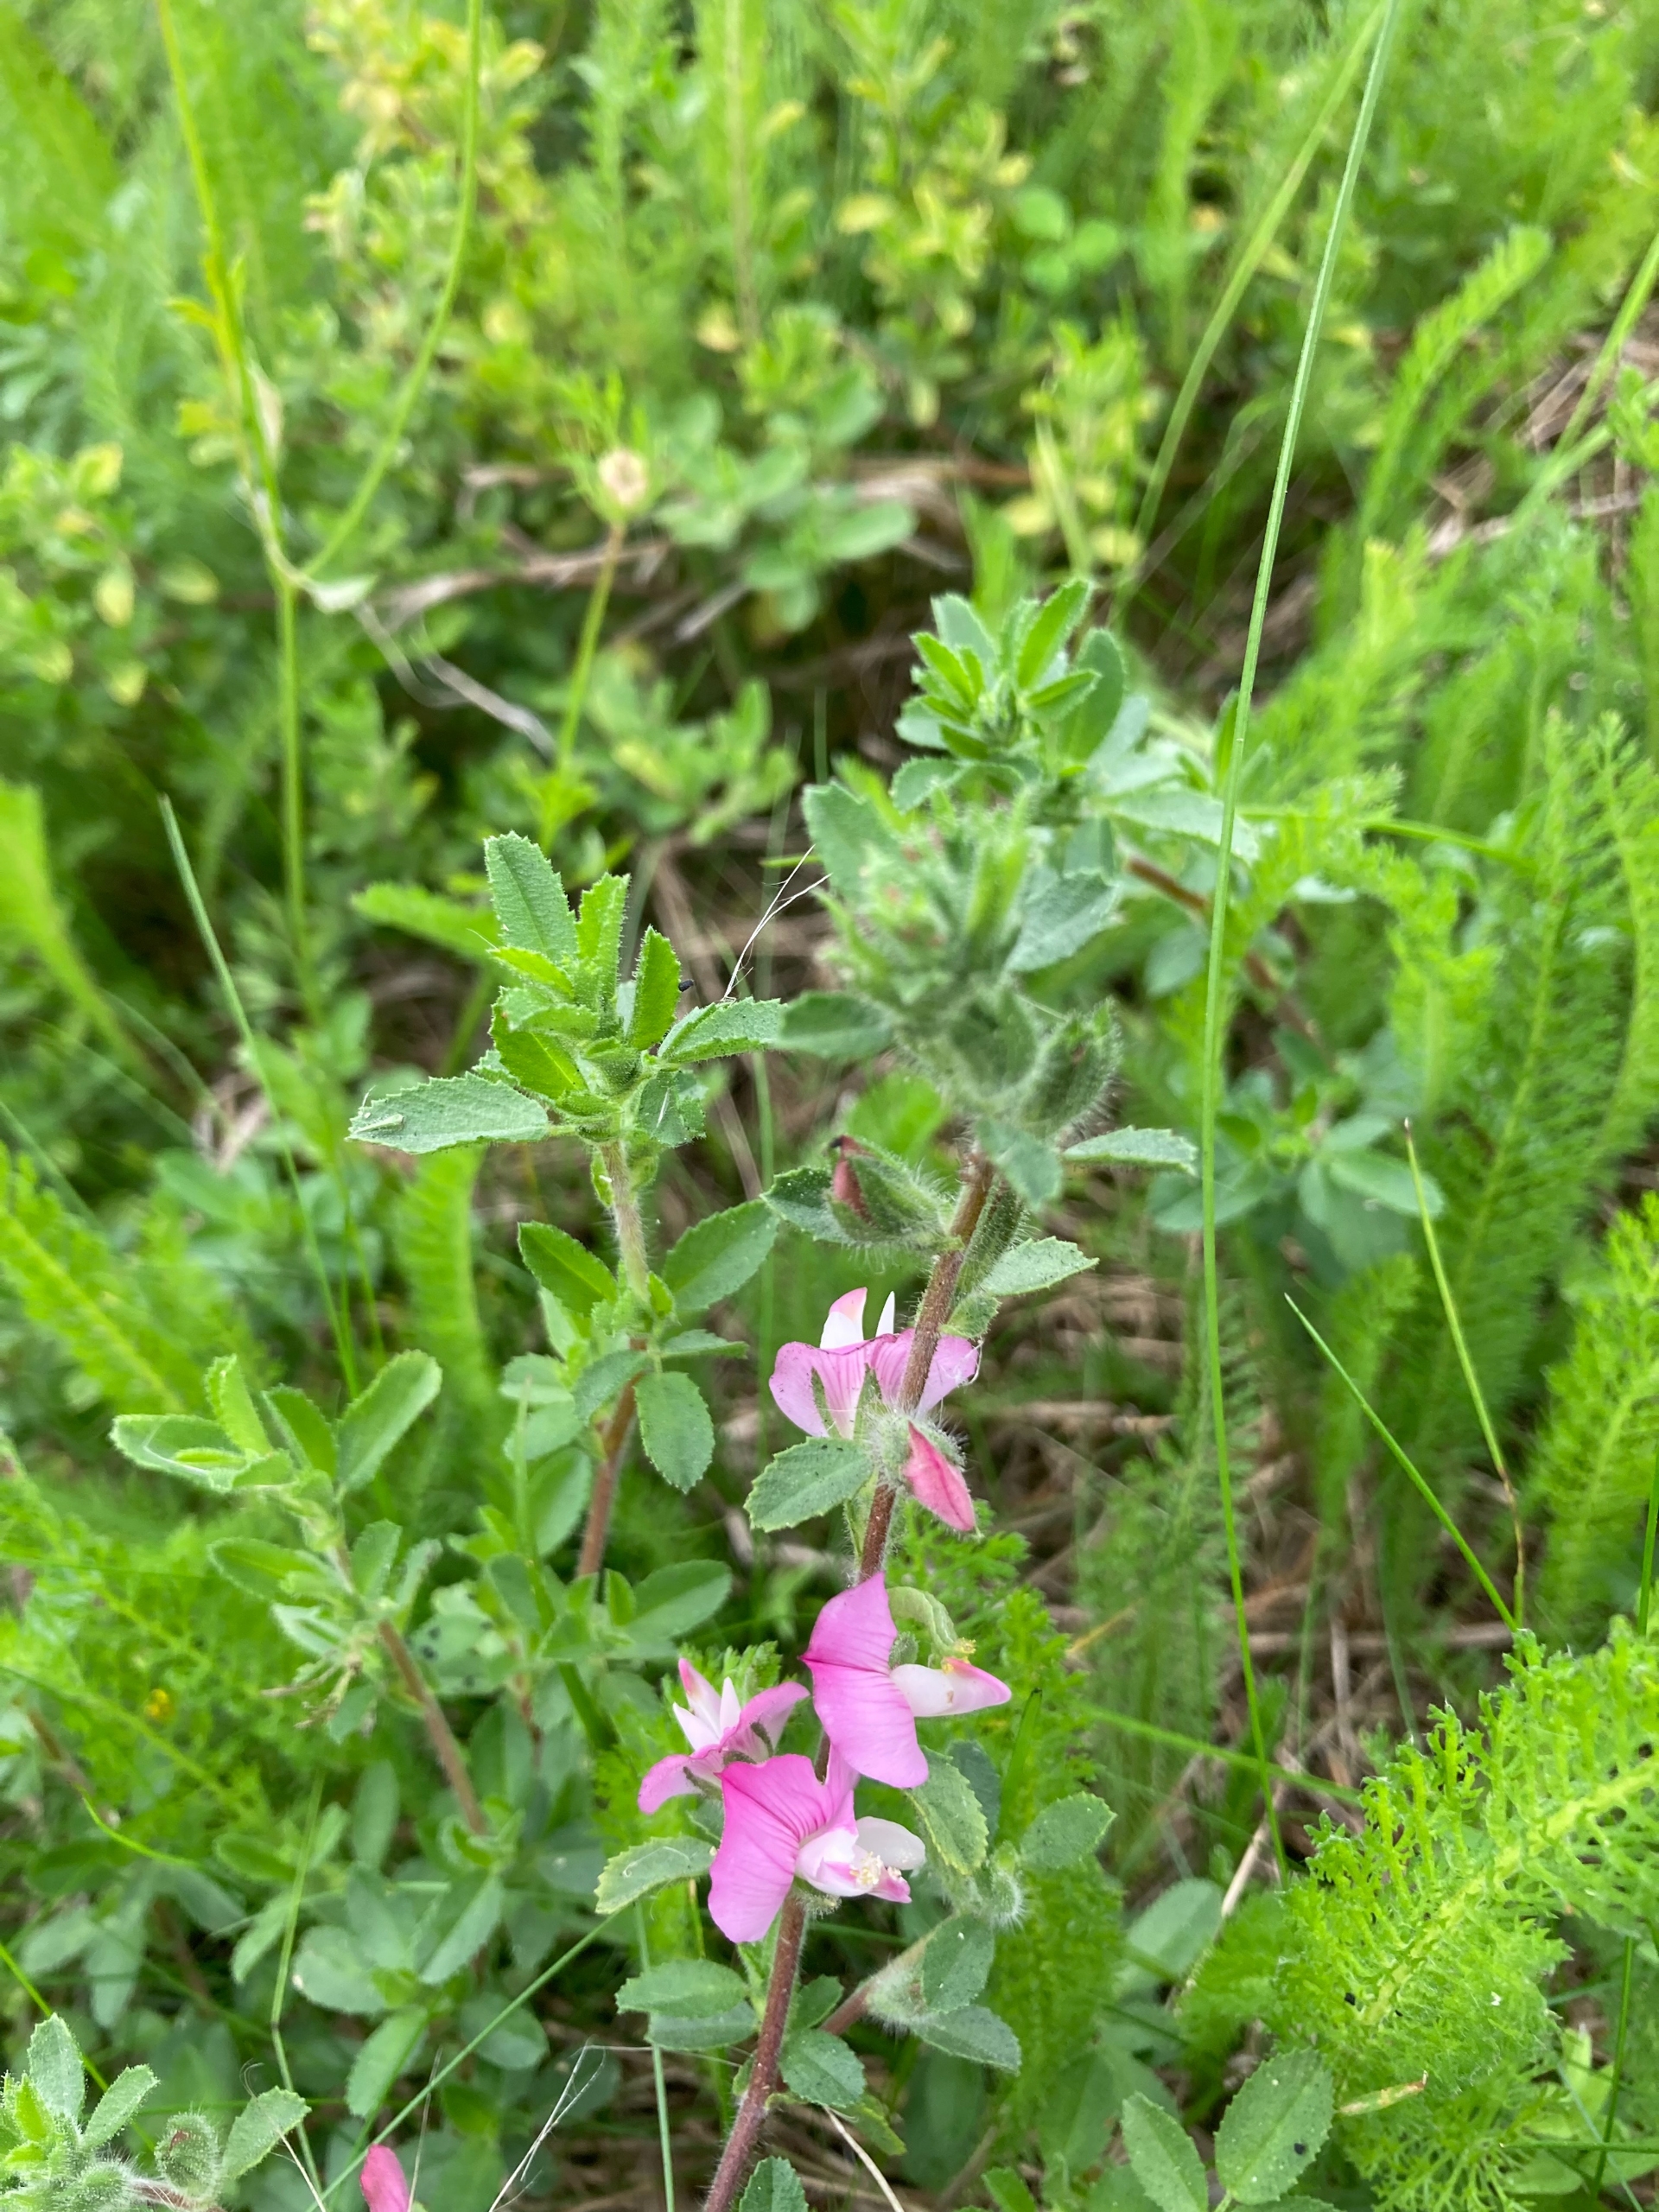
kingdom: Plantae
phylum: Tracheophyta
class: Magnoliopsida
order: Fabales
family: Fabaceae
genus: Ononis
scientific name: Ononis spinosa
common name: Mark-krageklo
